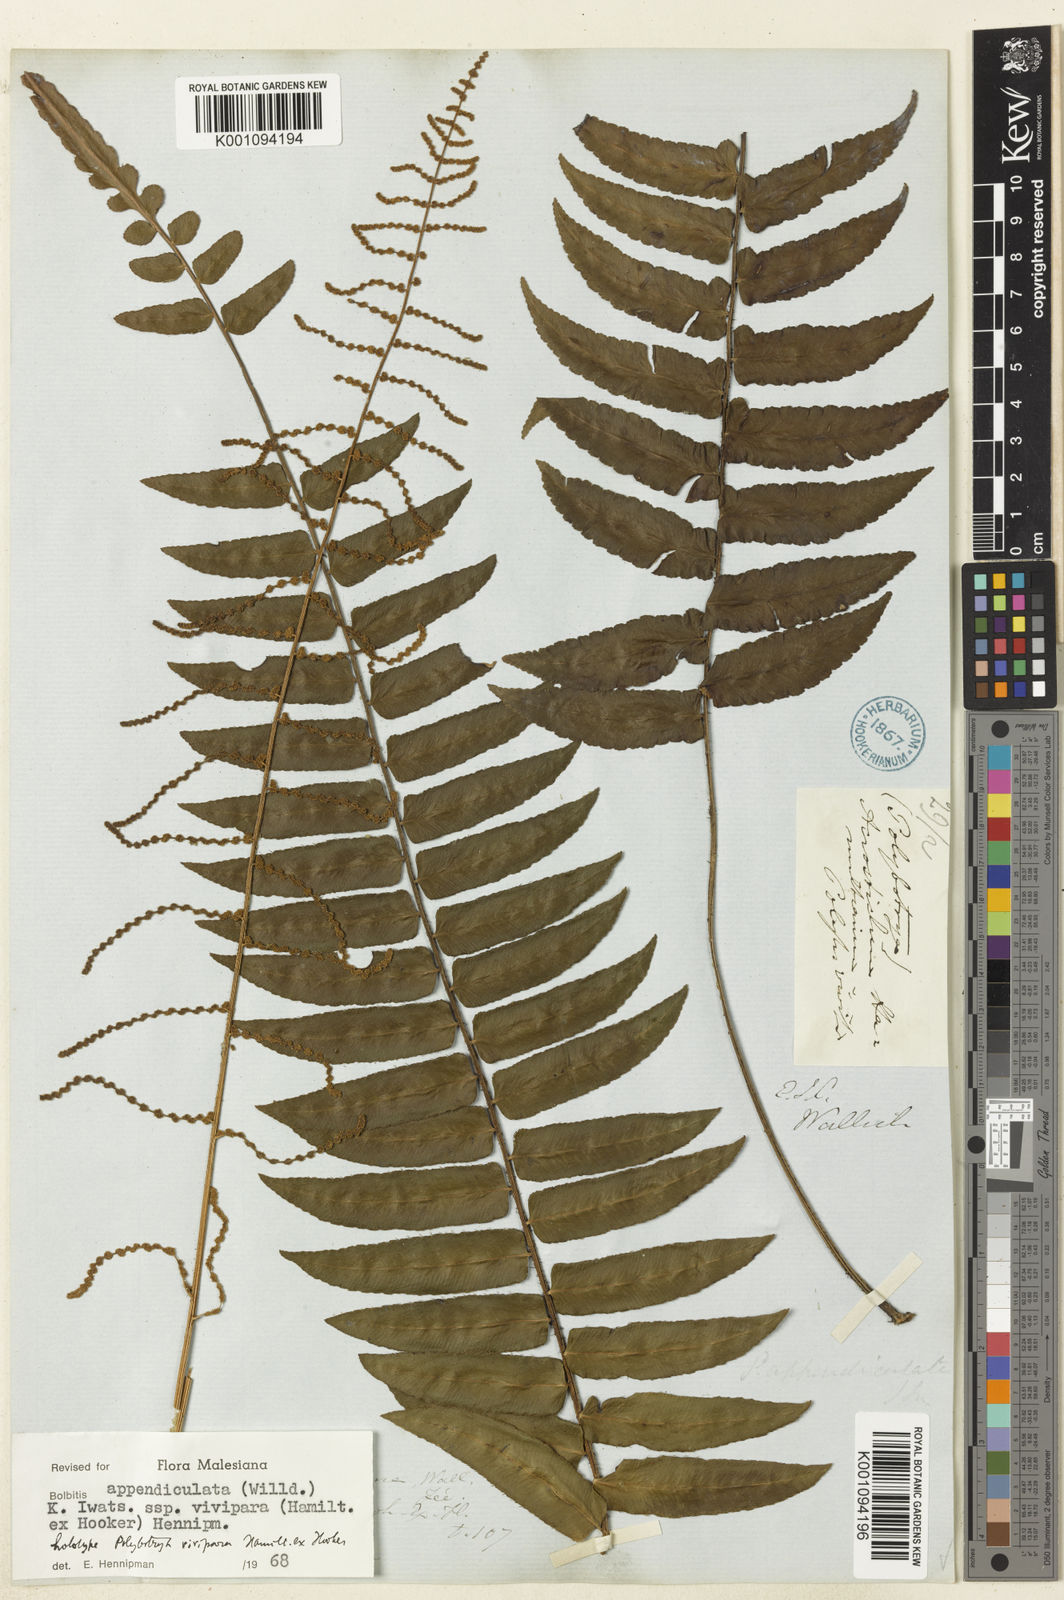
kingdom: Plantae
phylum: Tracheophyta
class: Polypodiopsida
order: Polypodiales
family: Dryopteridaceae
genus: Bolbitis
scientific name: Bolbitis nodiflora
